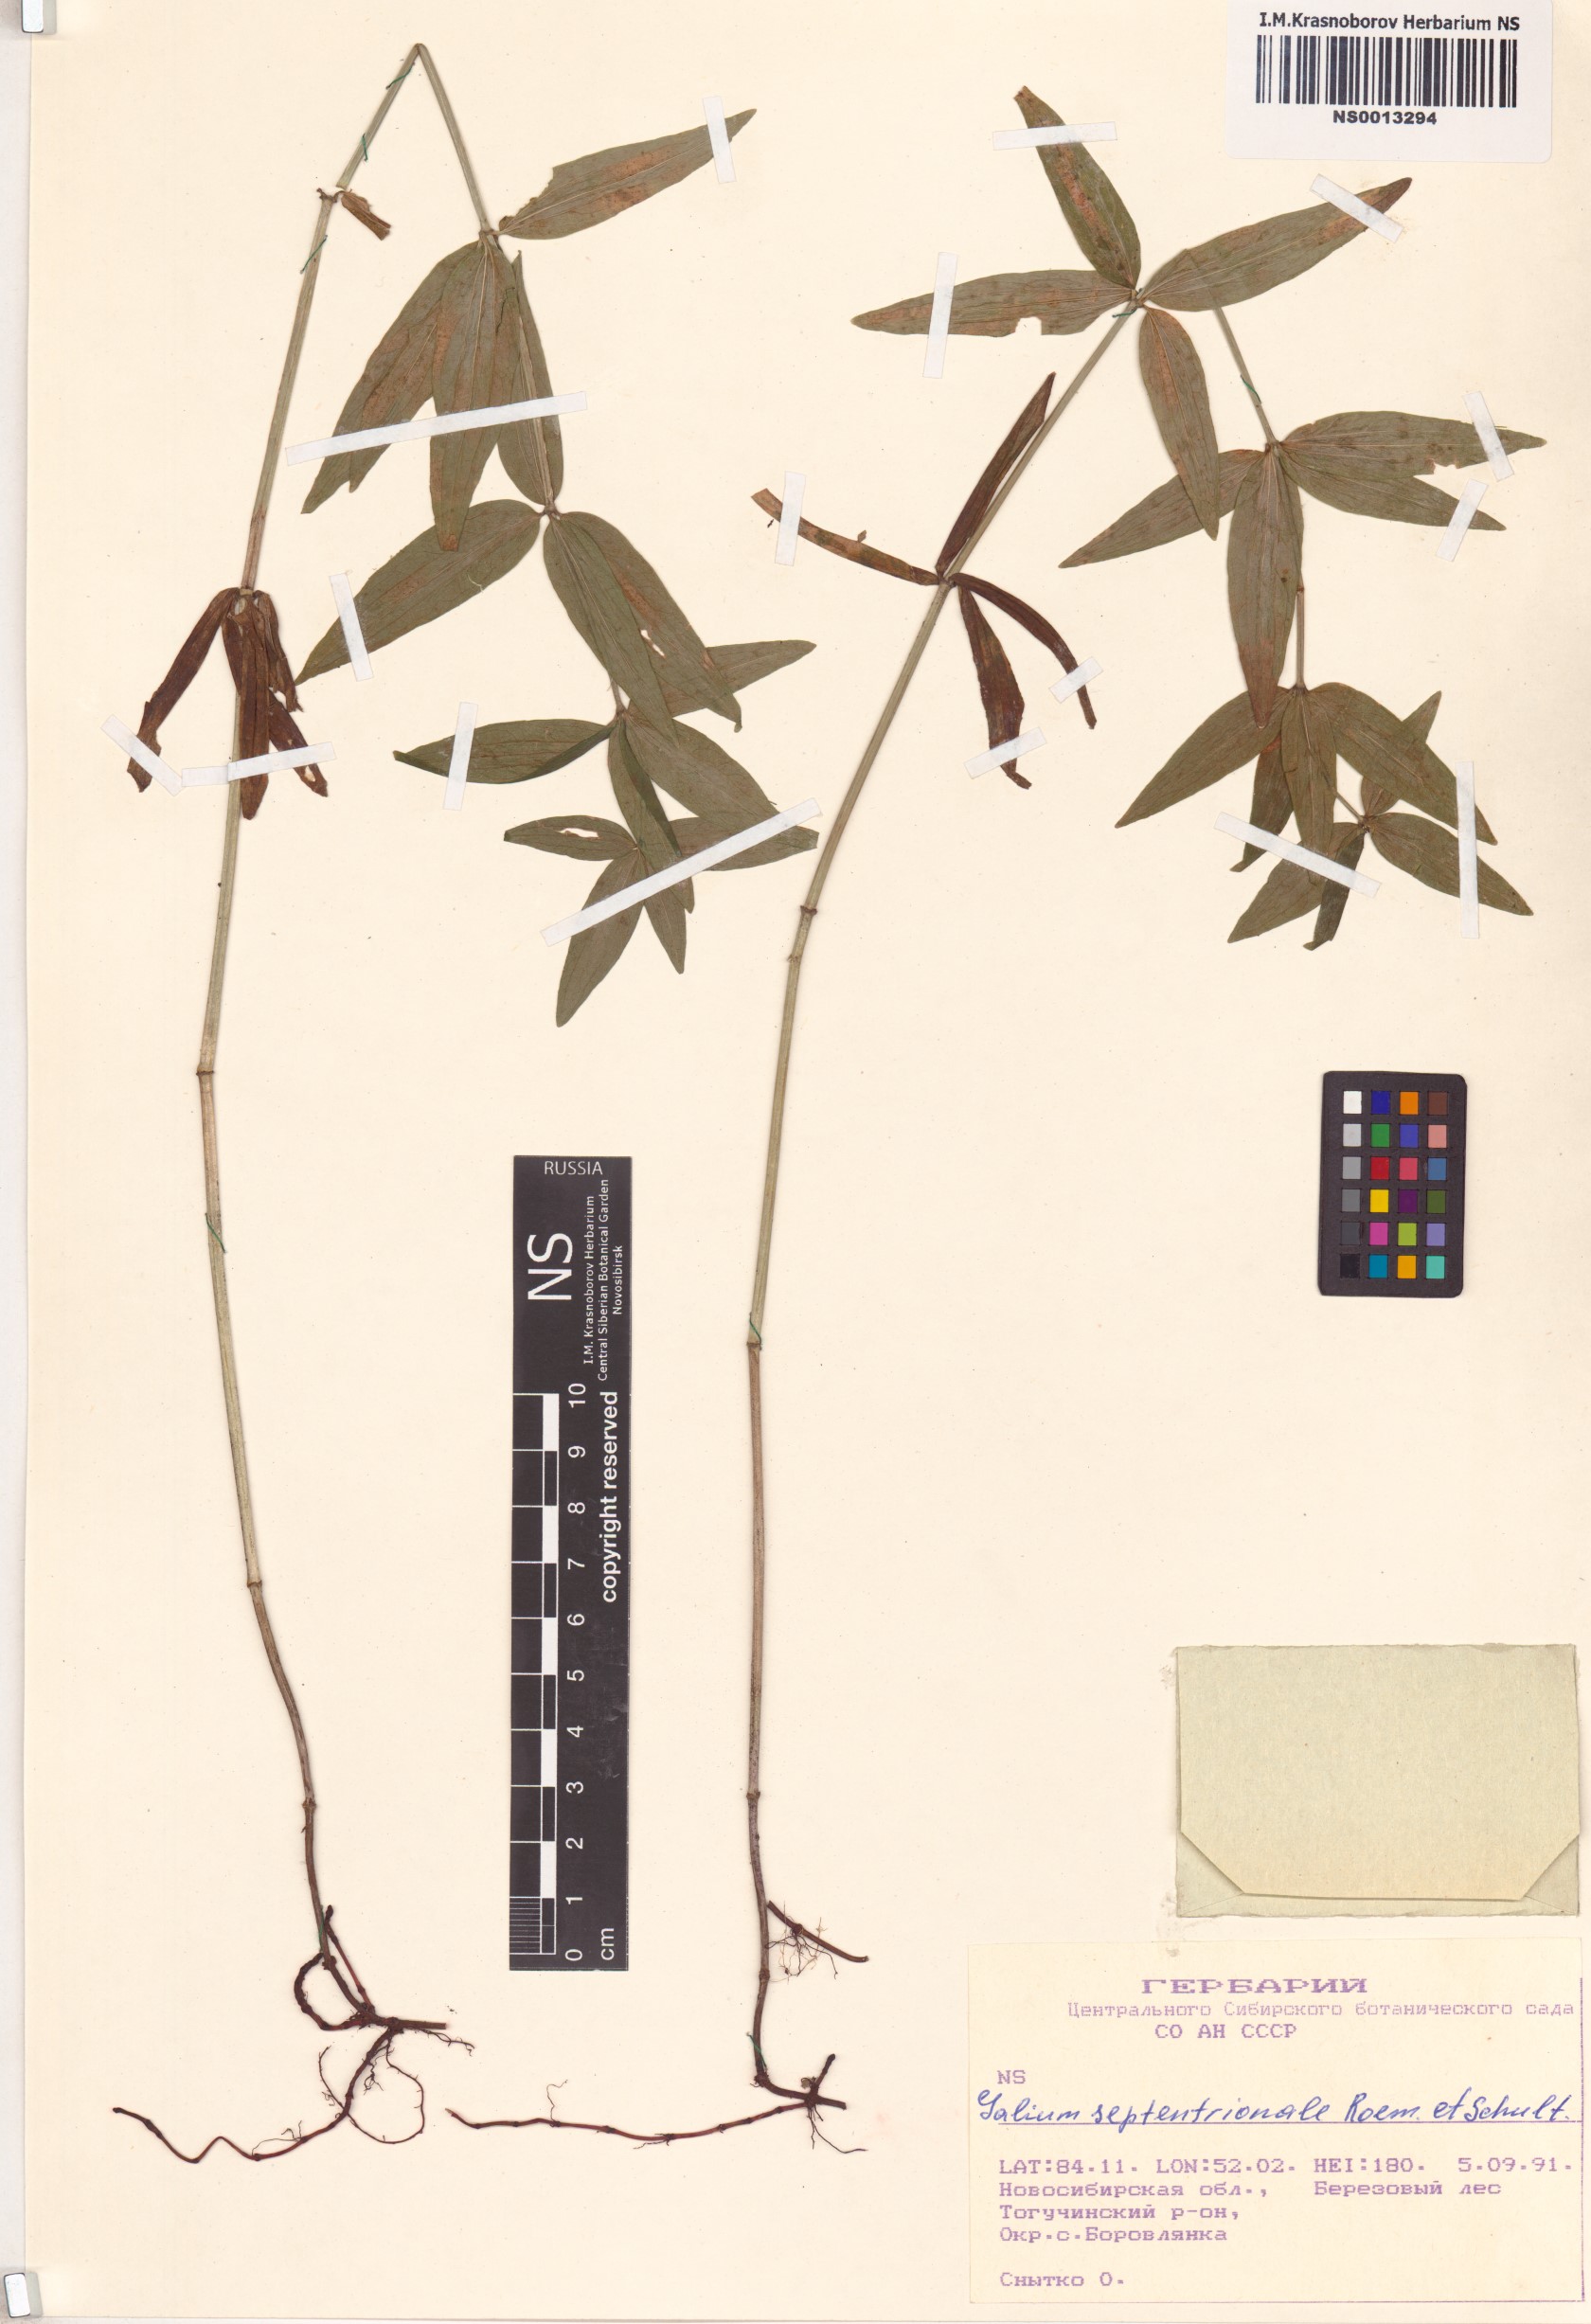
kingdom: Plantae
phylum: Tracheophyta
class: Magnoliopsida
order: Gentianales
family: Rubiaceae
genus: Galium
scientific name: Galium boreale
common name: Northern bedstraw
